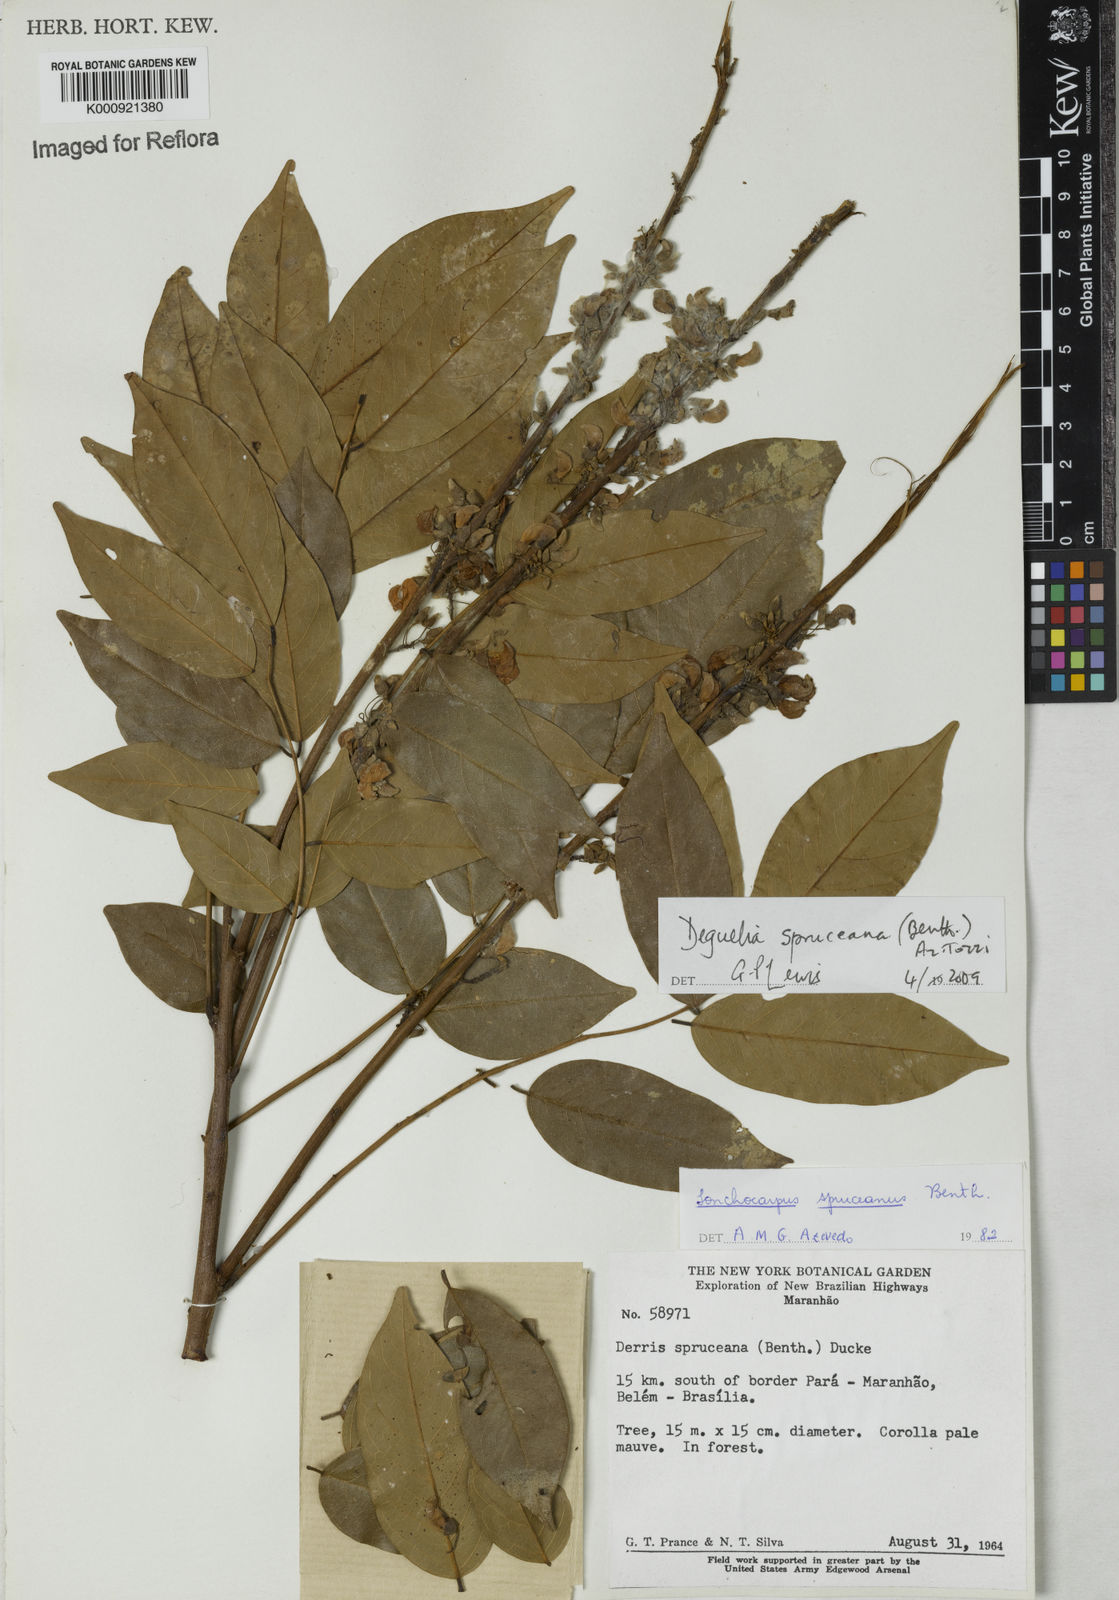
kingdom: Plantae
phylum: Tracheophyta
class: Magnoliopsida
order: Fabales
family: Fabaceae
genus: Deguelia
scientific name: Deguelia spruceana
